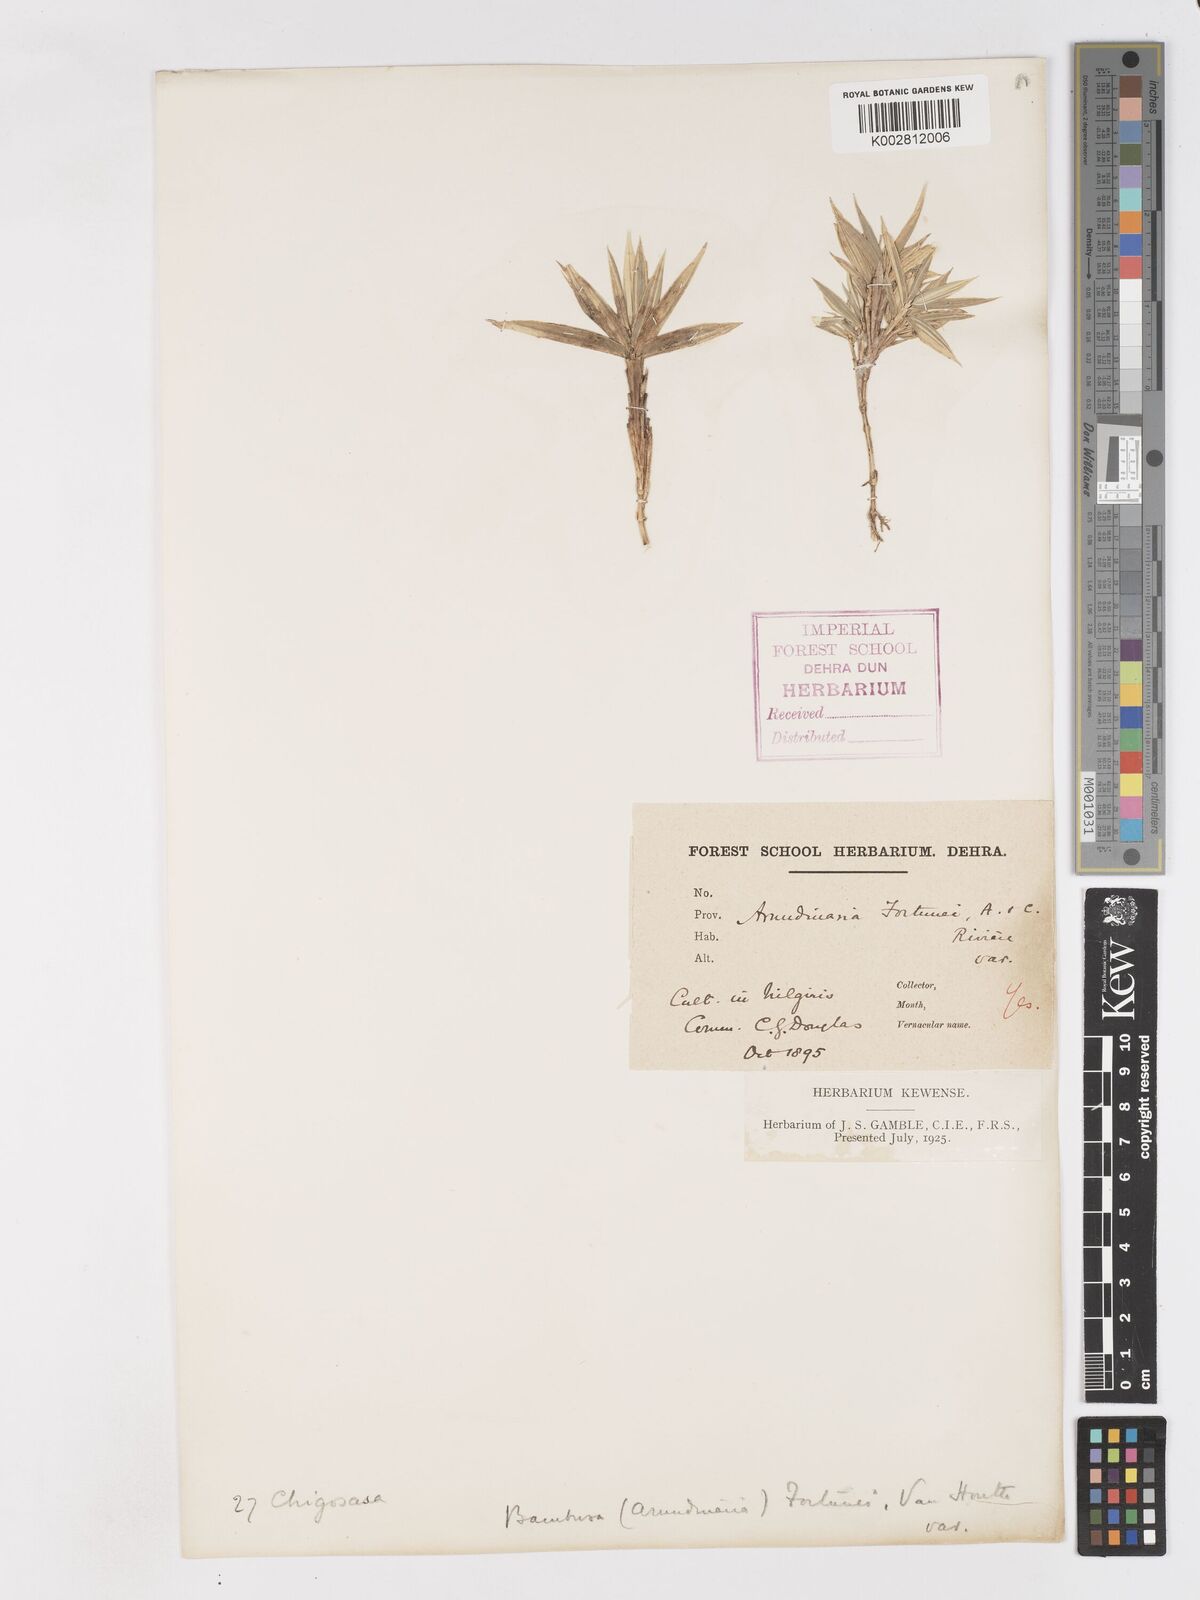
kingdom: Plantae
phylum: Tracheophyta
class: Liliopsida
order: Poales
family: Poaceae
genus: Pleioblastus
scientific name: Pleioblastus variegatus
